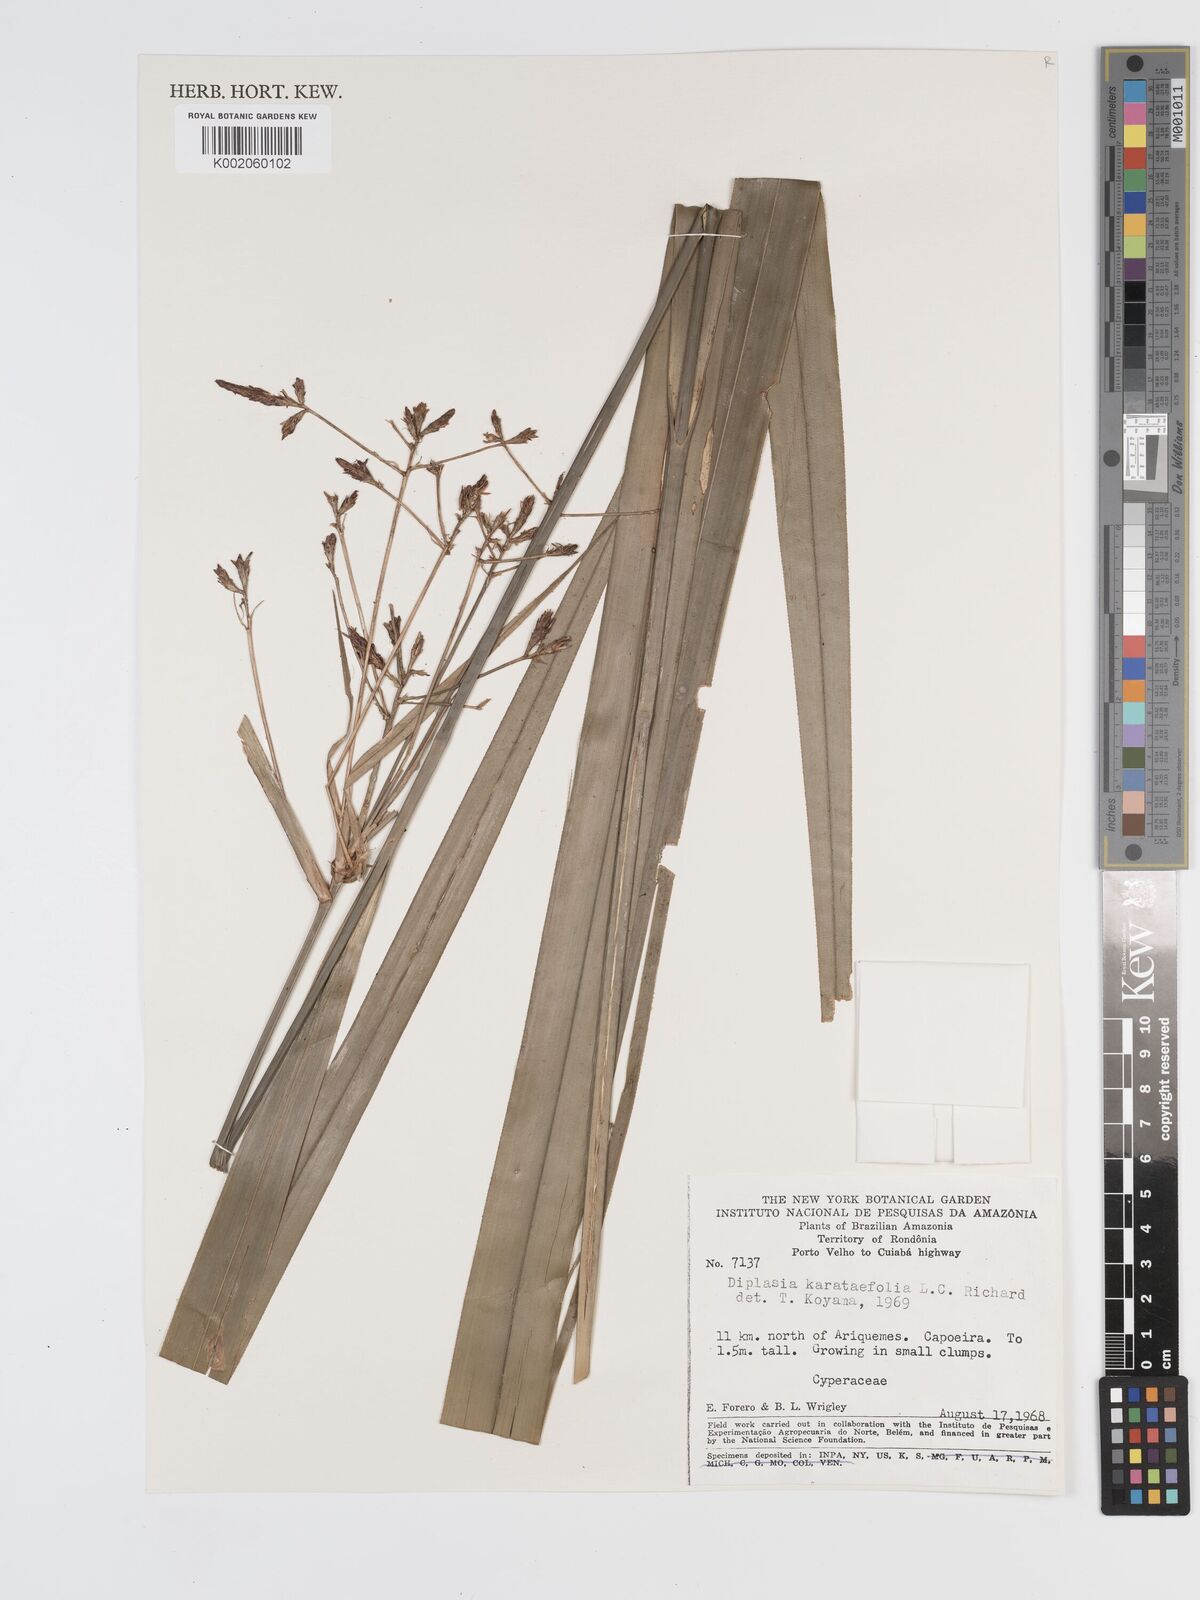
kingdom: Plantae
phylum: Tracheophyta
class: Liliopsida
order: Poales
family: Cyperaceae
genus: Diplasia
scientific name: Diplasia karatifolia
